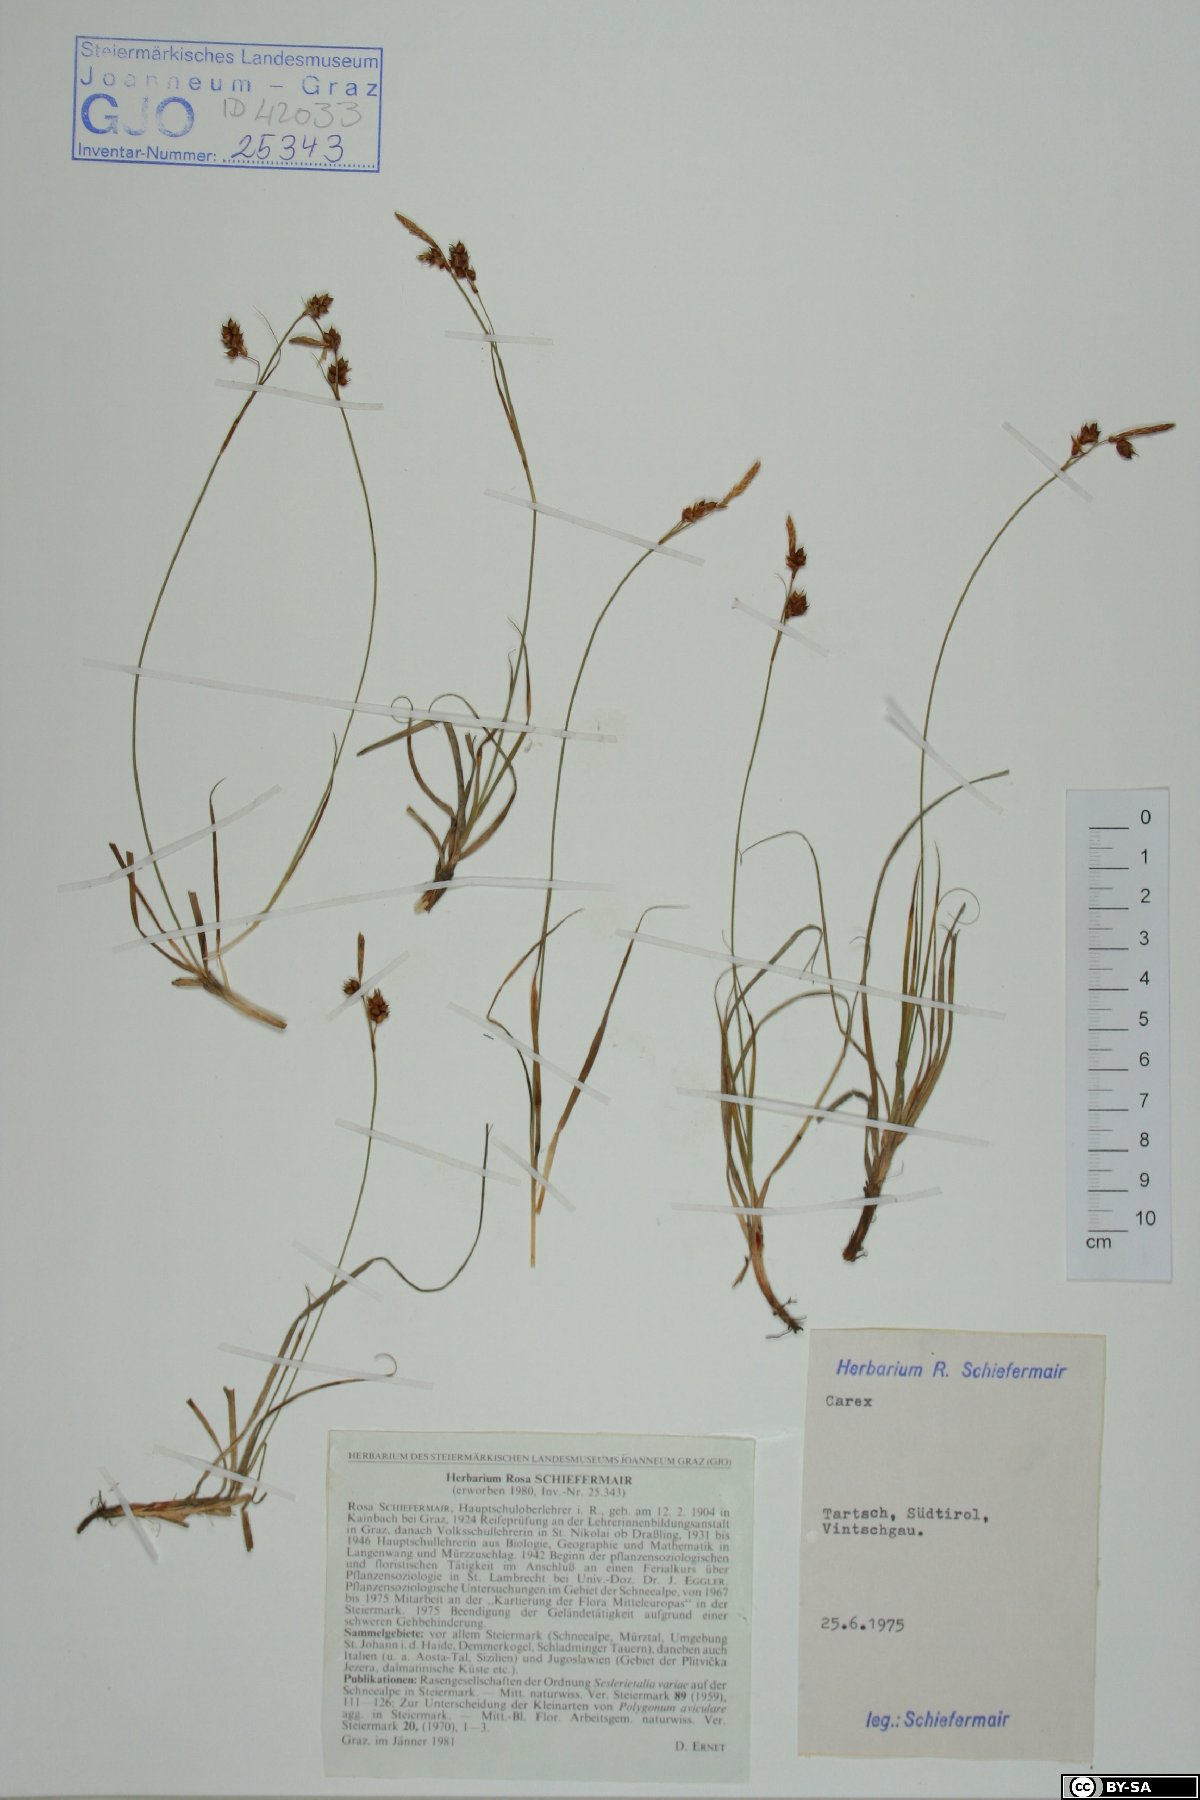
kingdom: Plantae
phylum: Tracheophyta
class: Liliopsida
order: Poales
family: Cyperaceae
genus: Carex
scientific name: Carex
